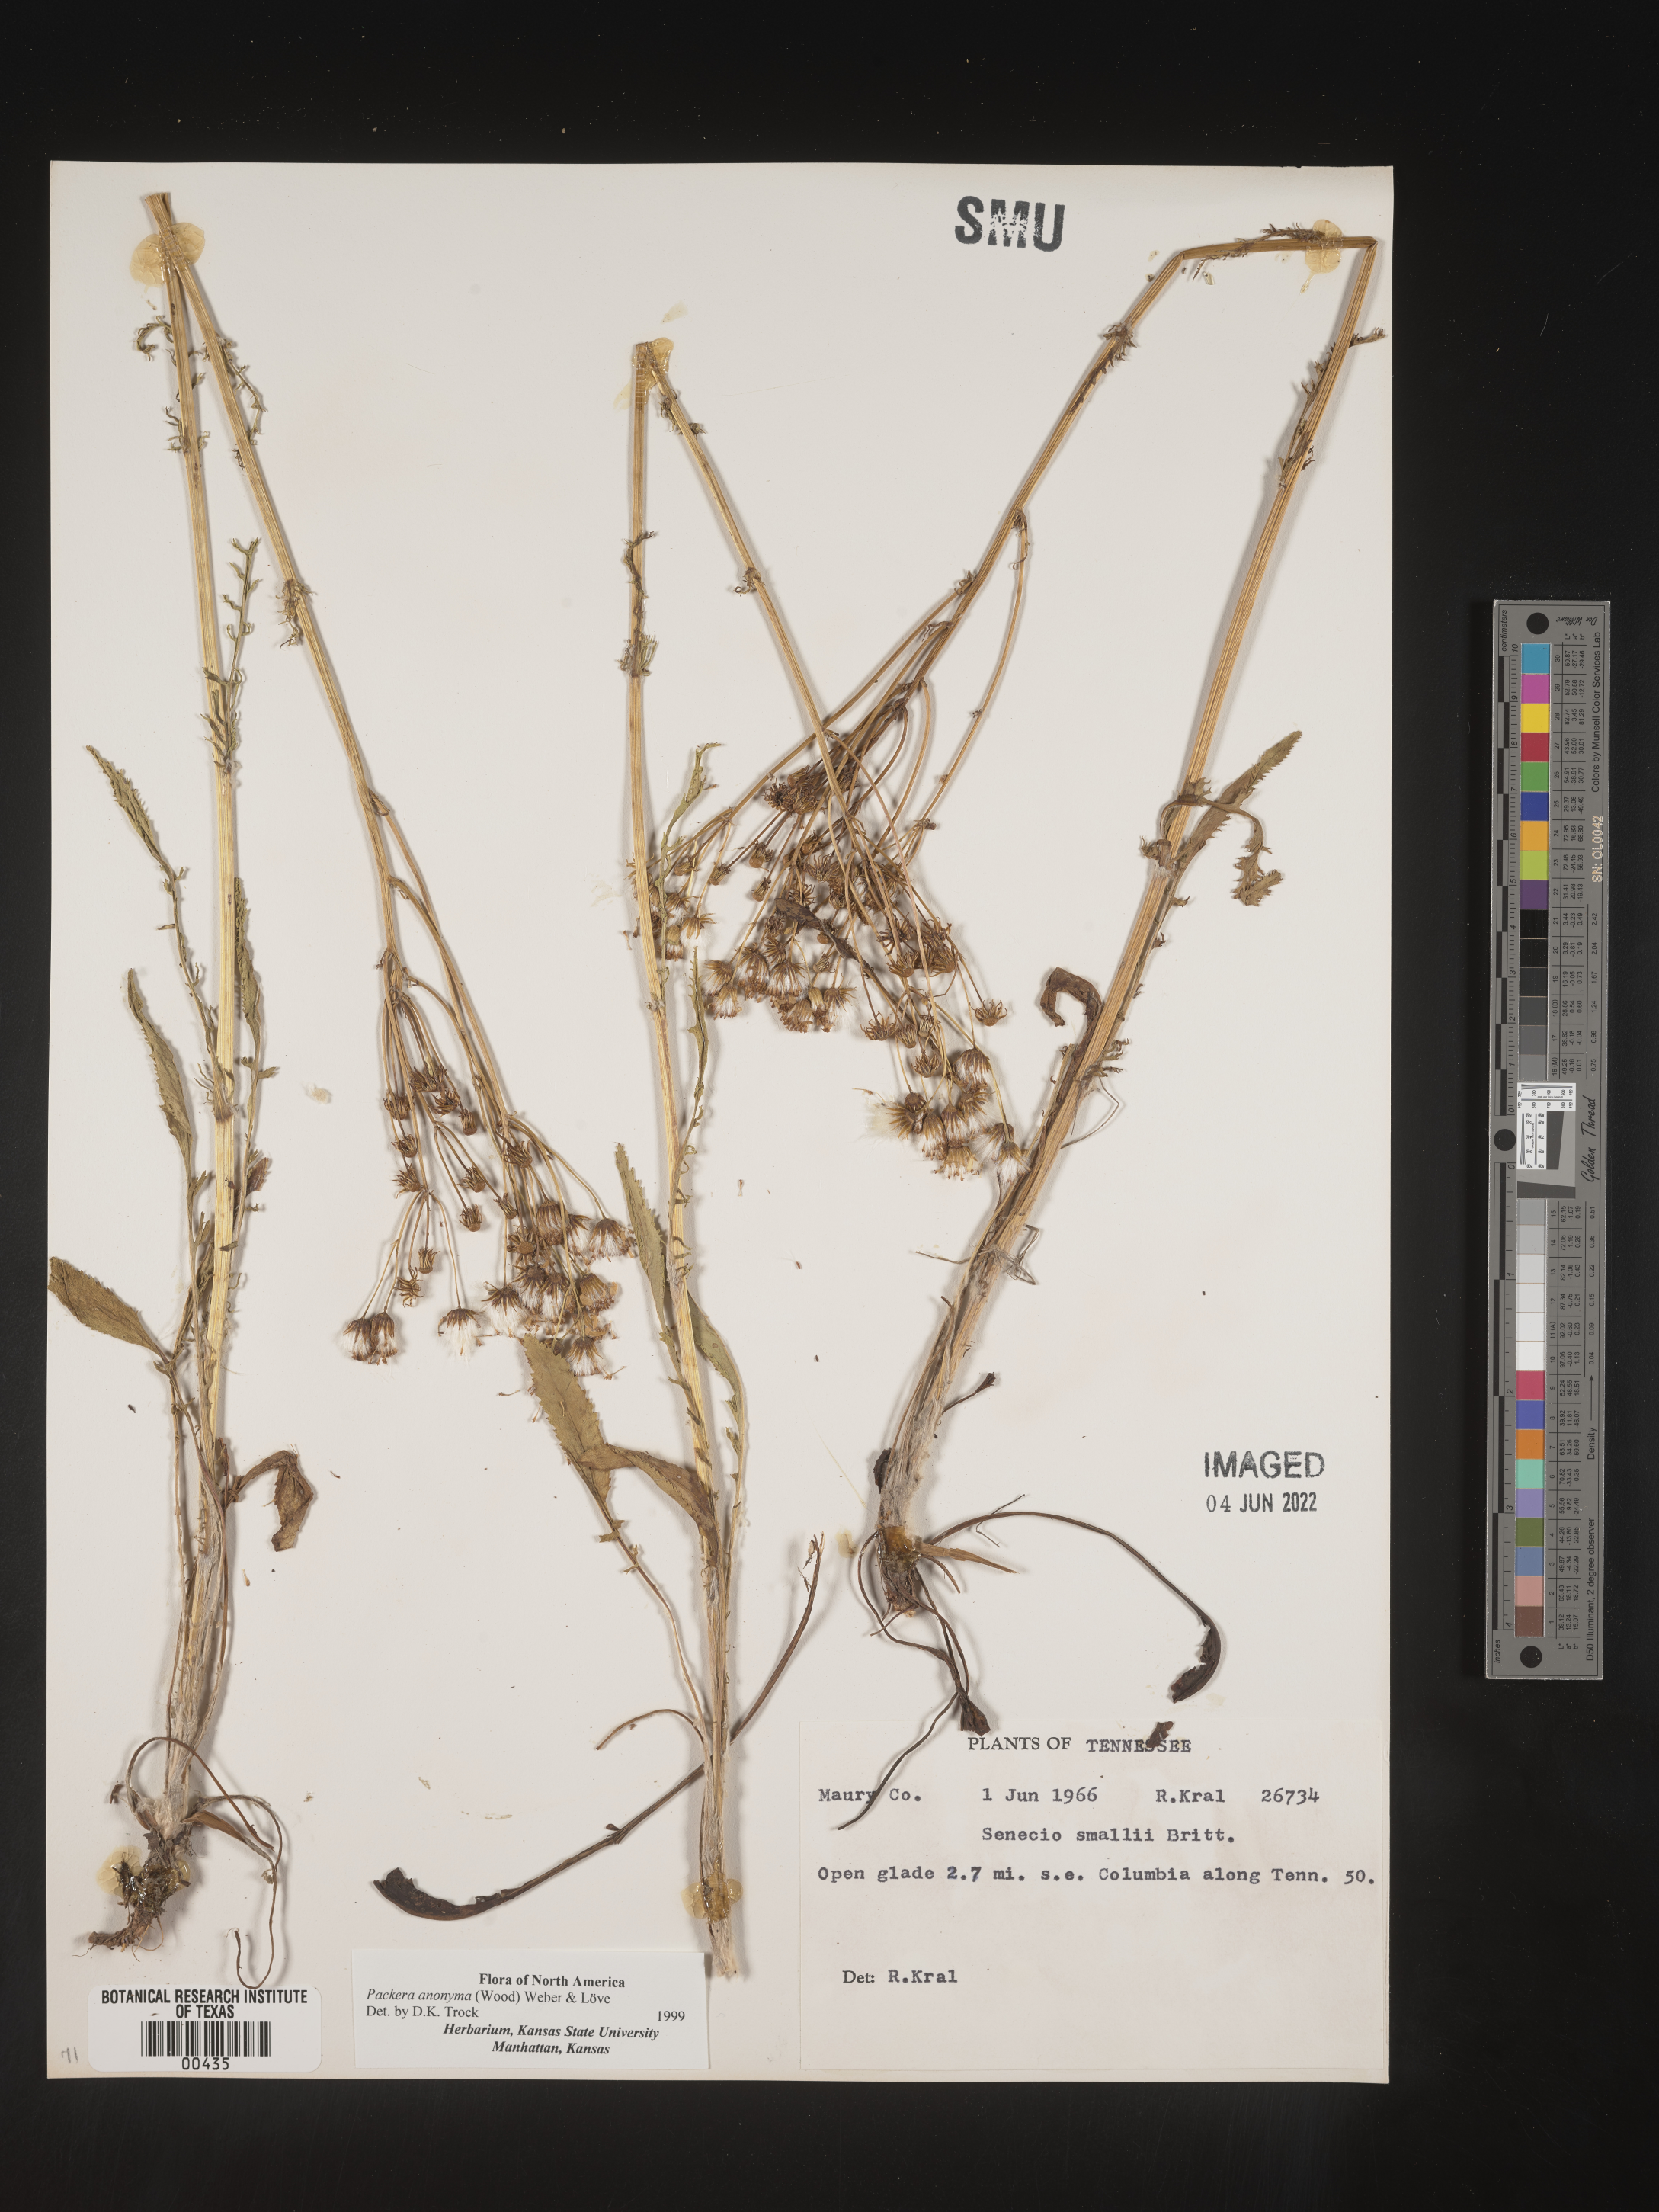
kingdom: Plantae
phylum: Tracheophyta
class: Magnoliopsida
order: Asterales
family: Asteraceae
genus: Packera
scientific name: Packera anonyma
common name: Small ragwort
